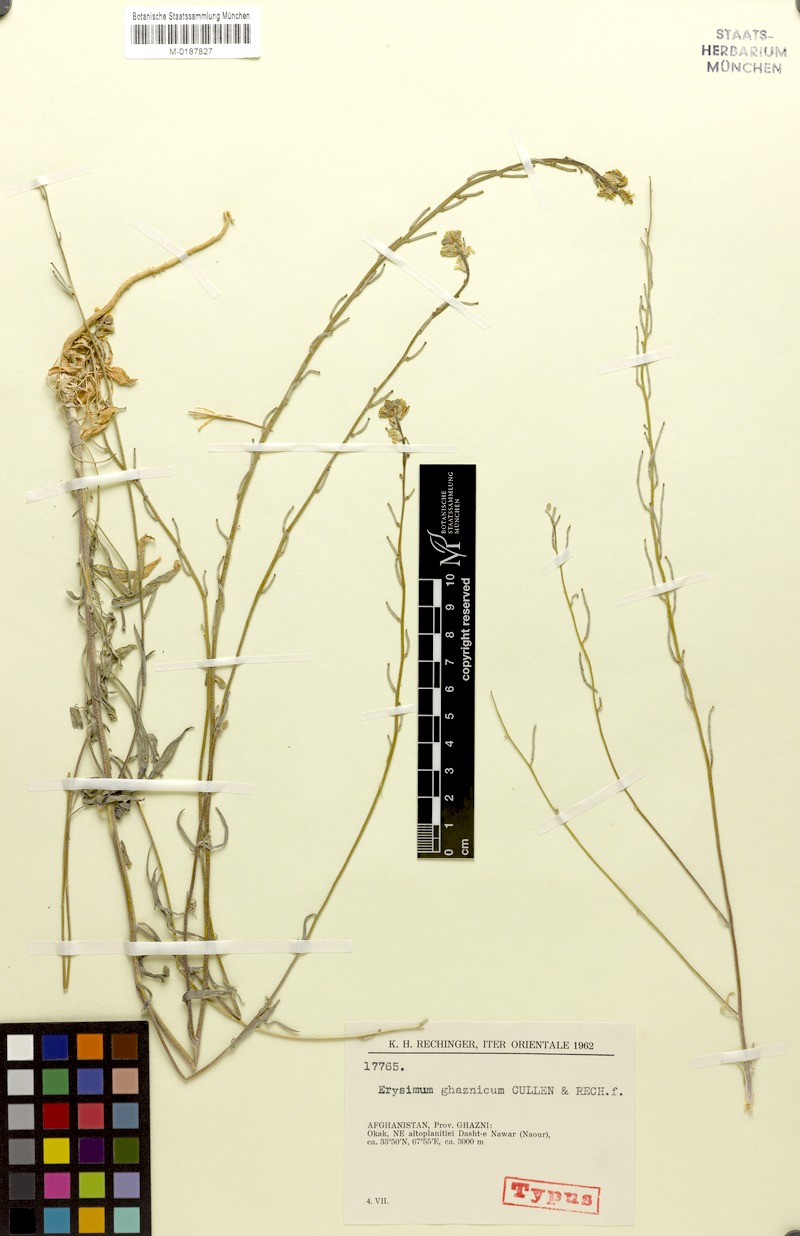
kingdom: Plantae
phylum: Tracheophyta
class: Magnoliopsida
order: Brassicales
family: Brassicaceae
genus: Erysimum
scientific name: Erysimum ghaznicum
